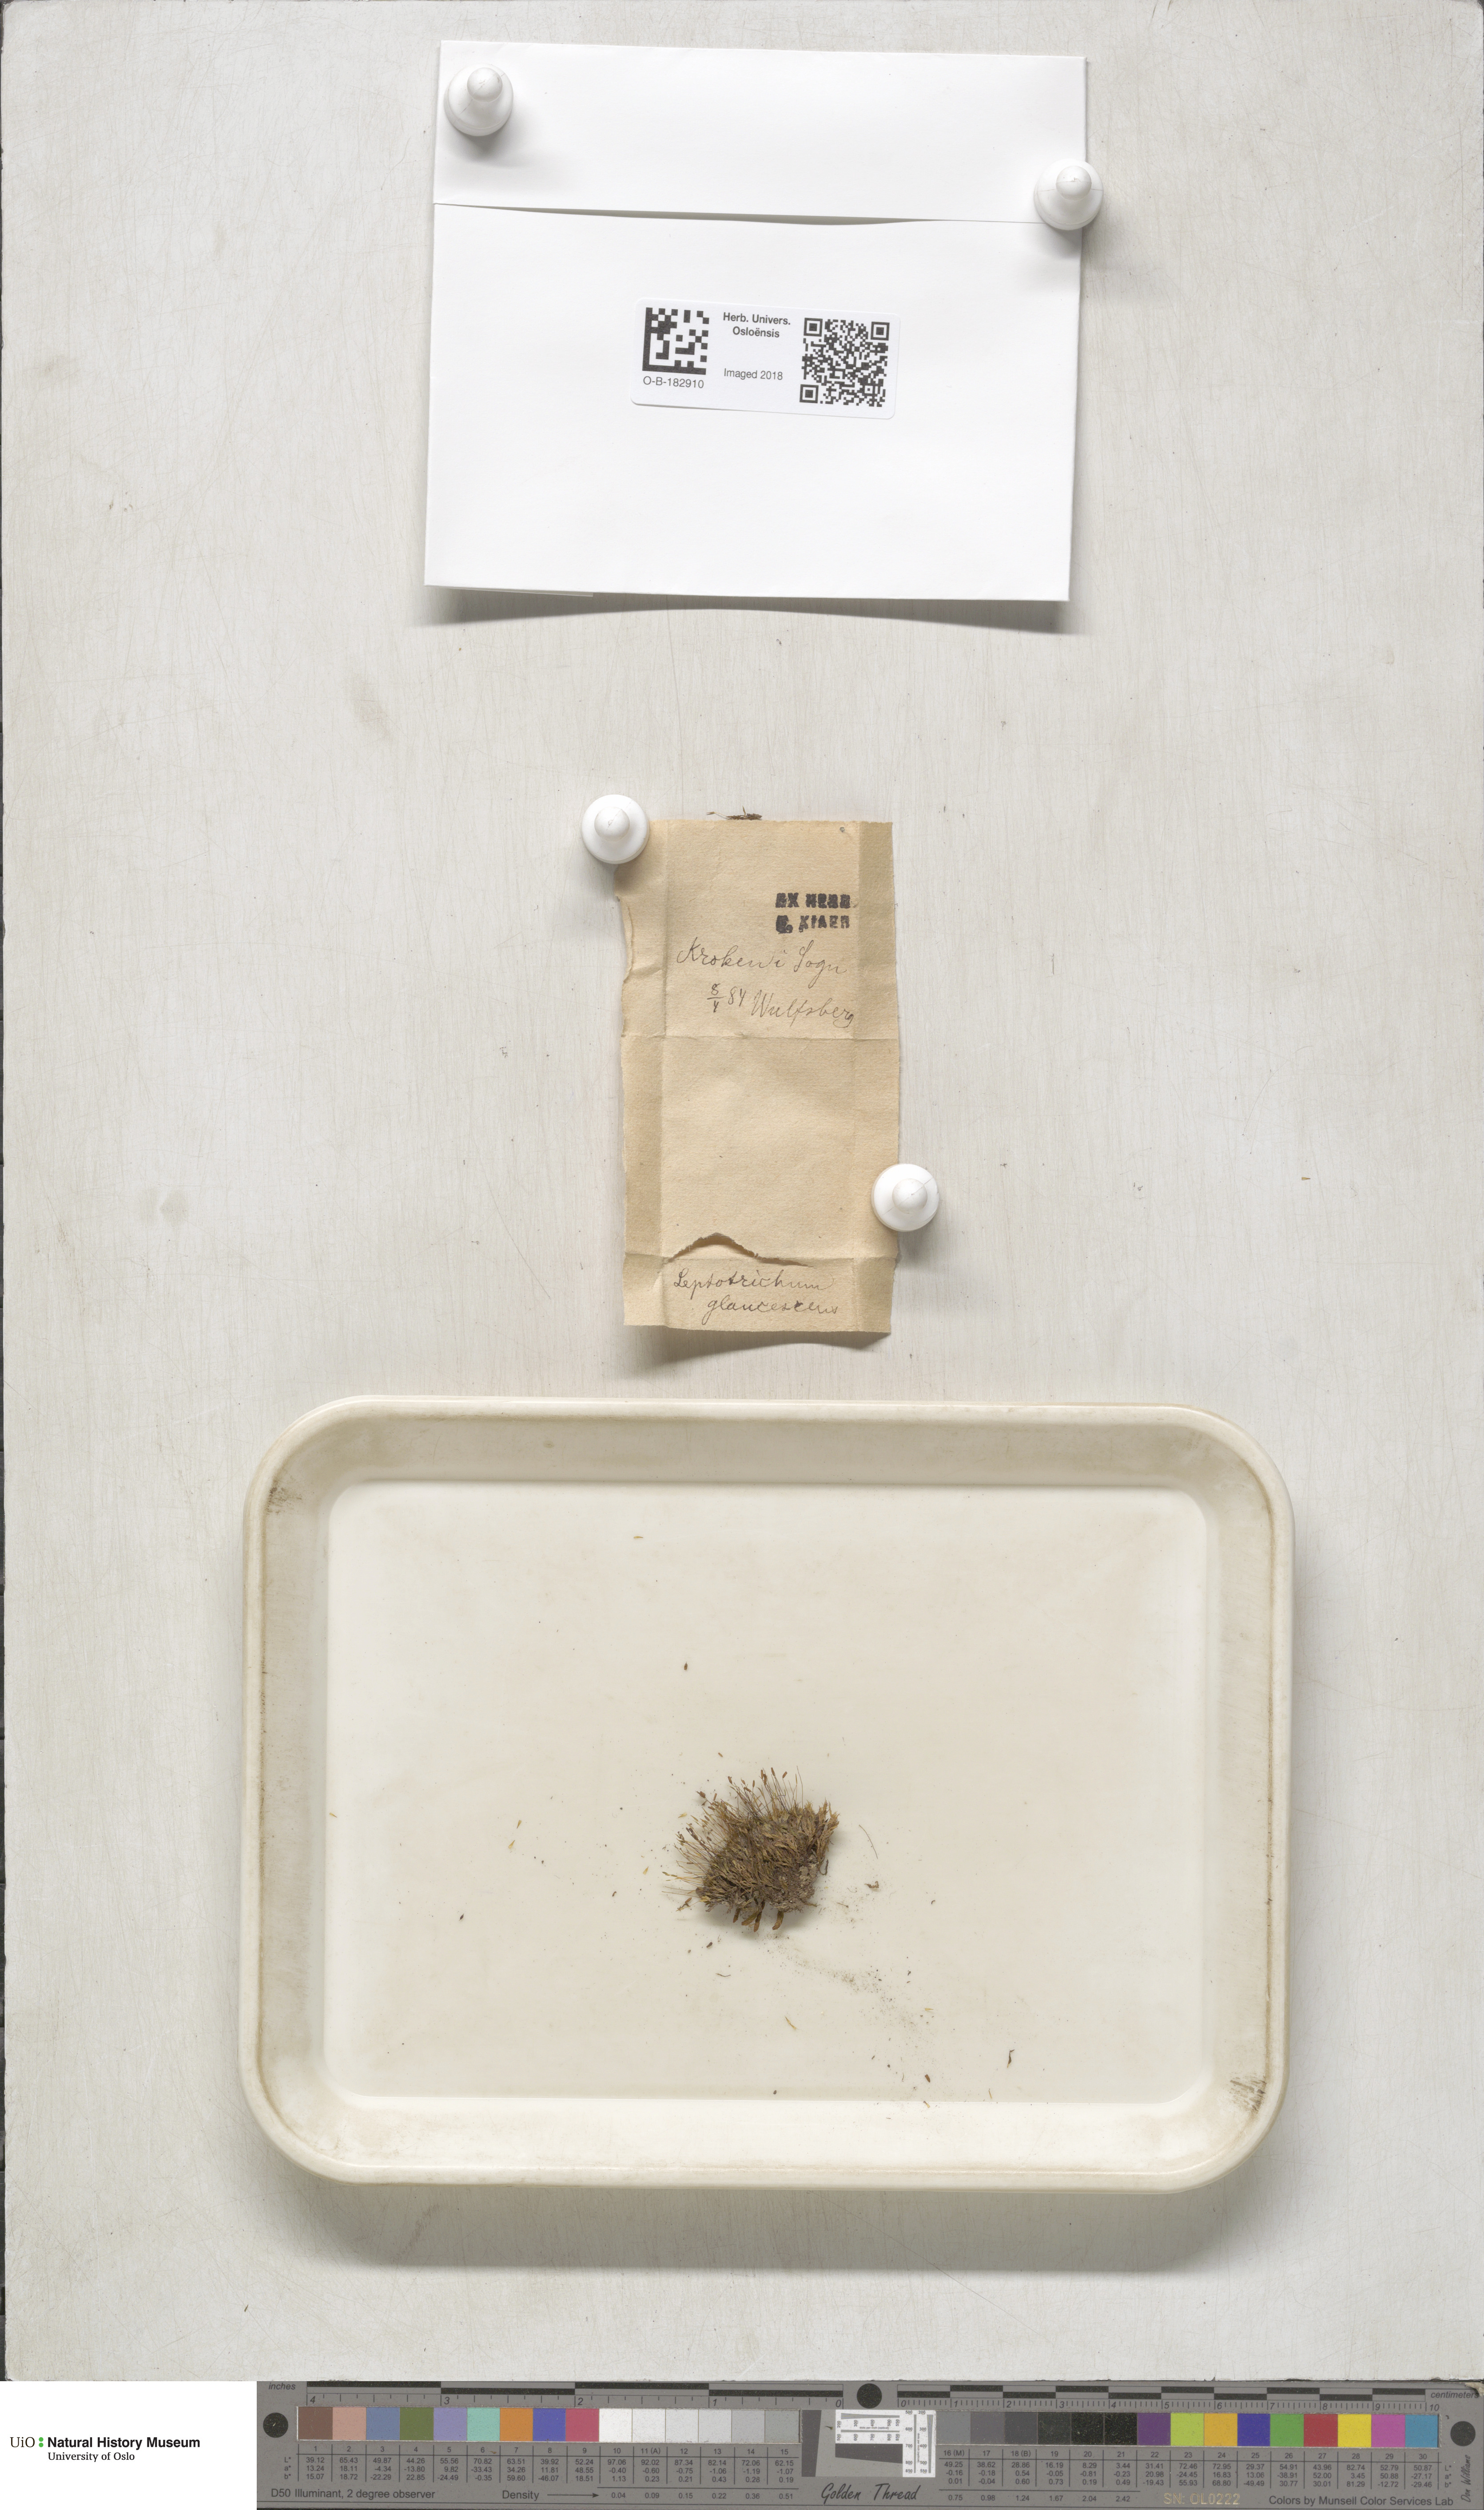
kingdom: Plantae
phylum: Bryophyta
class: Bryopsida
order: Grimmiales
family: Saelaniaceae
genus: Saelania
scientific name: Saelania glaucescens
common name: Blue dew-moss
